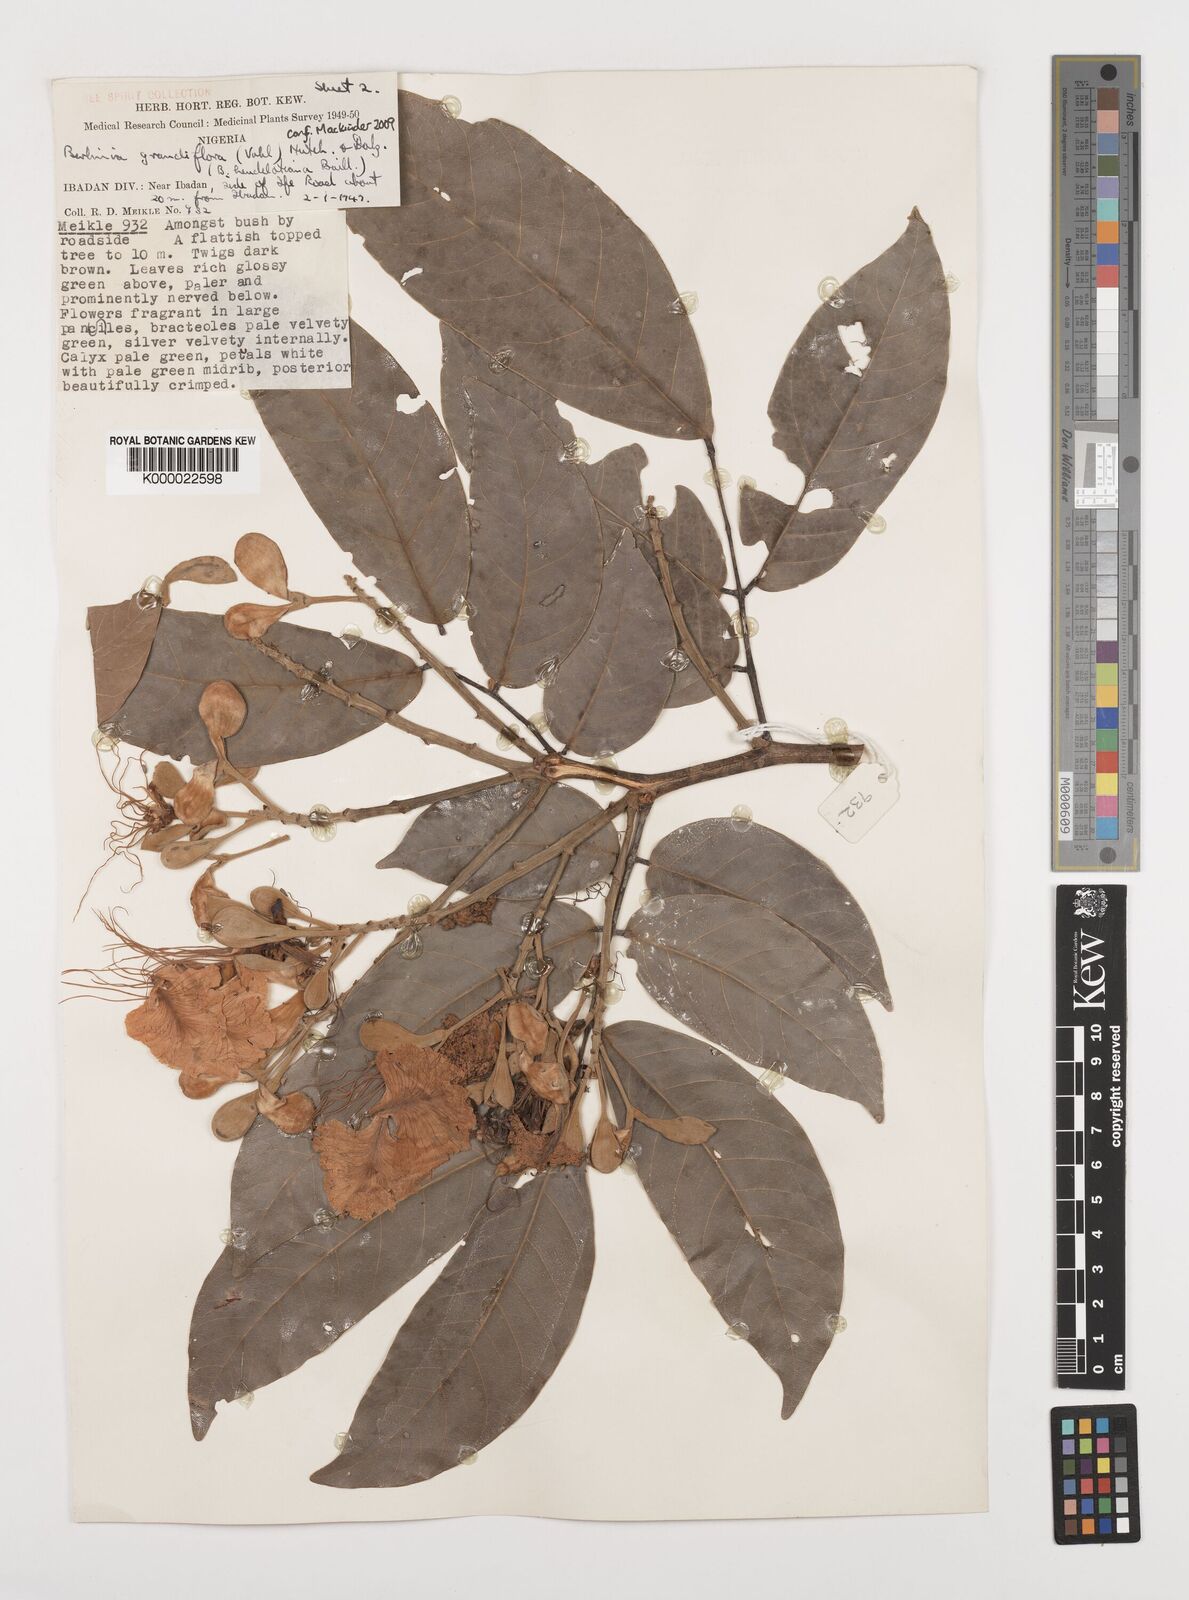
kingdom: Plantae
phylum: Tracheophyta
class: Magnoliopsida
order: Fabales
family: Fabaceae
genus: Berlinia
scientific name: Berlinia grandiflora
